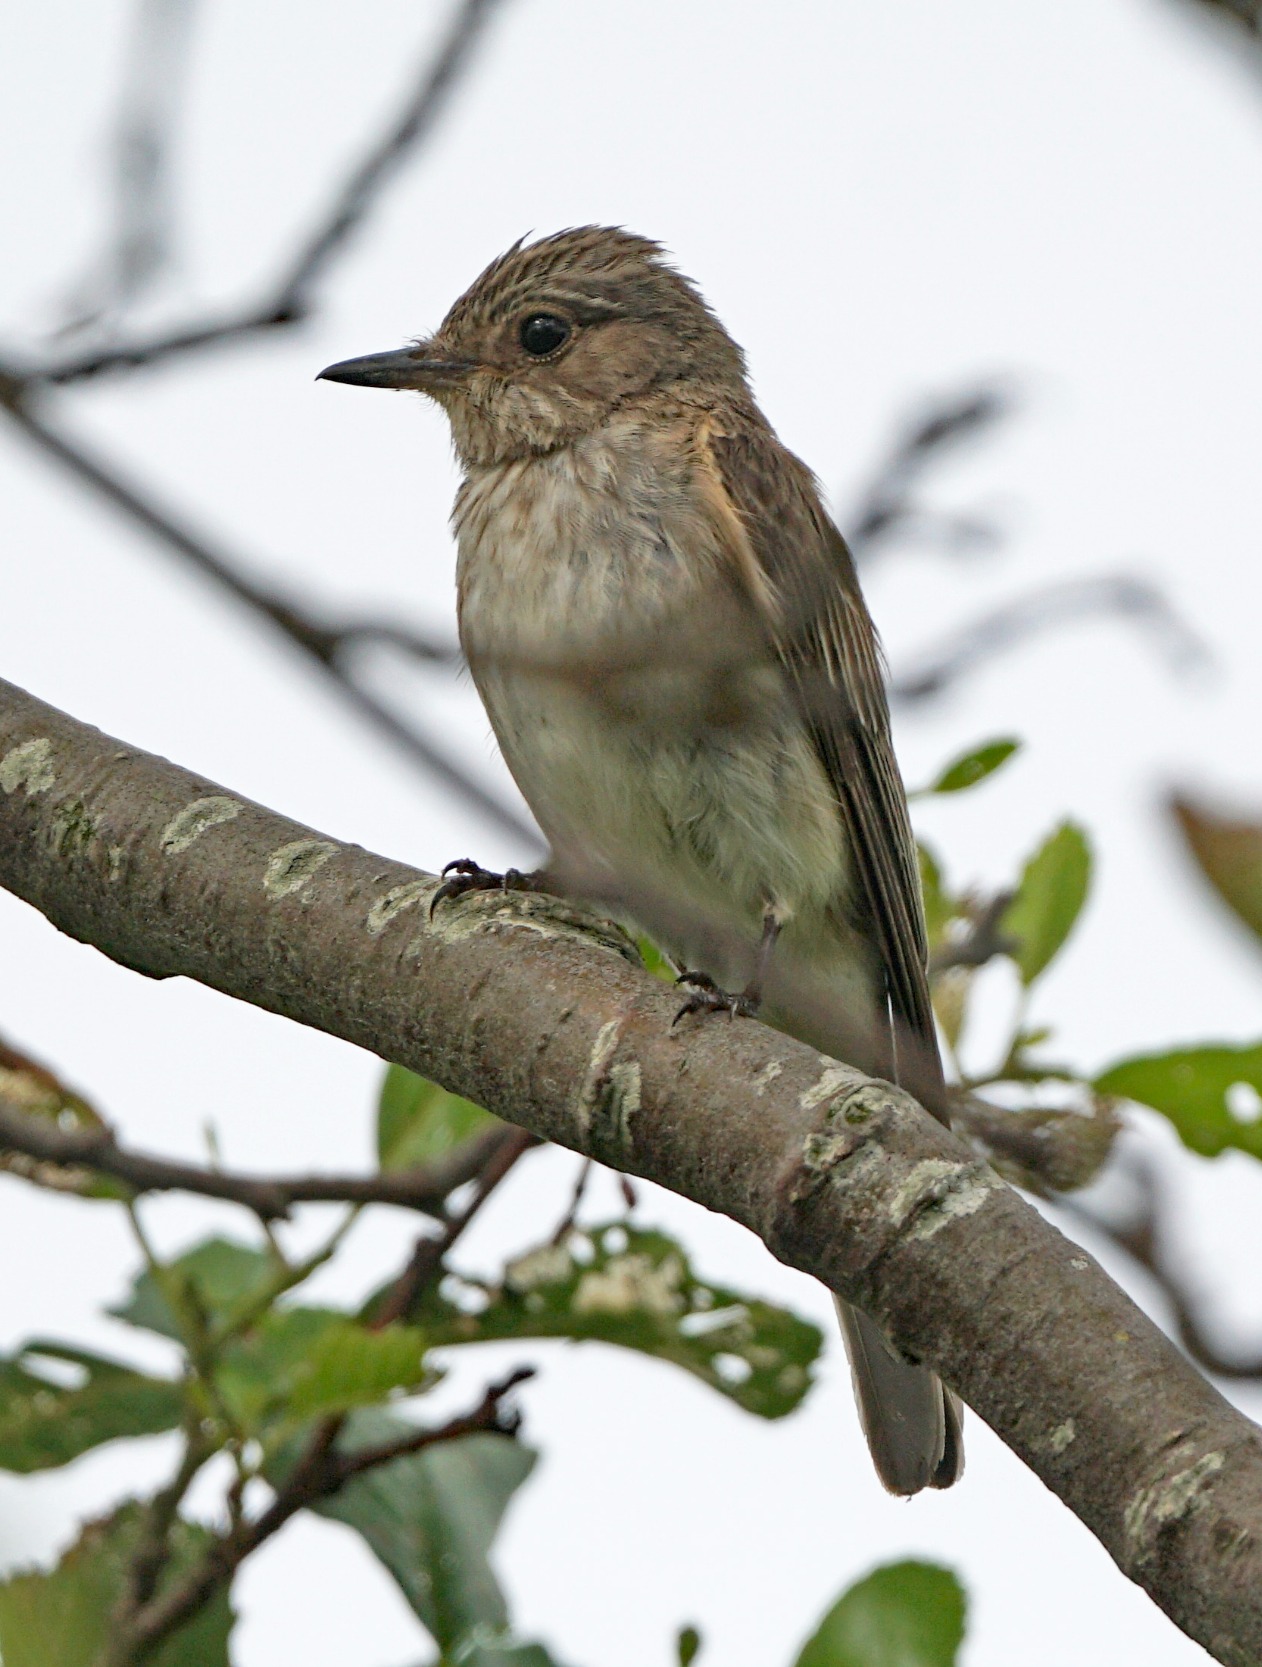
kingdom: Animalia
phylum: Chordata
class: Aves
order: Passeriformes
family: Muscicapidae
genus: Muscicapa
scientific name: Muscicapa striata
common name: Grå fluesnapper
